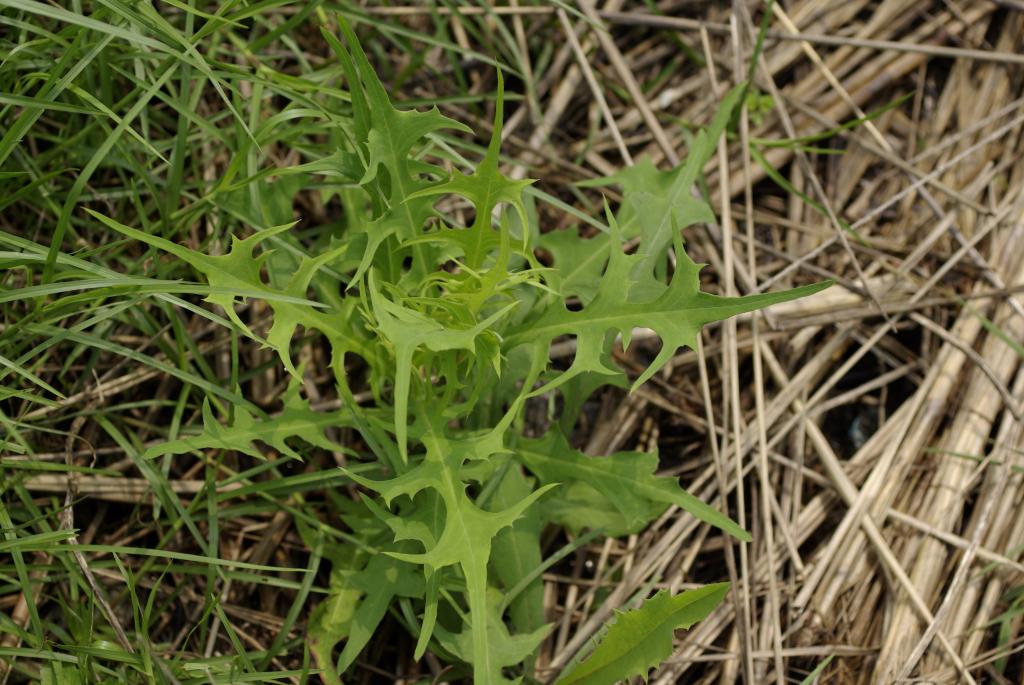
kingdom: Plantae
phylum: Tracheophyta
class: Magnoliopsida
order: Asterales
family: Asteraceae
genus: Lactuca
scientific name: Lactuca indica
